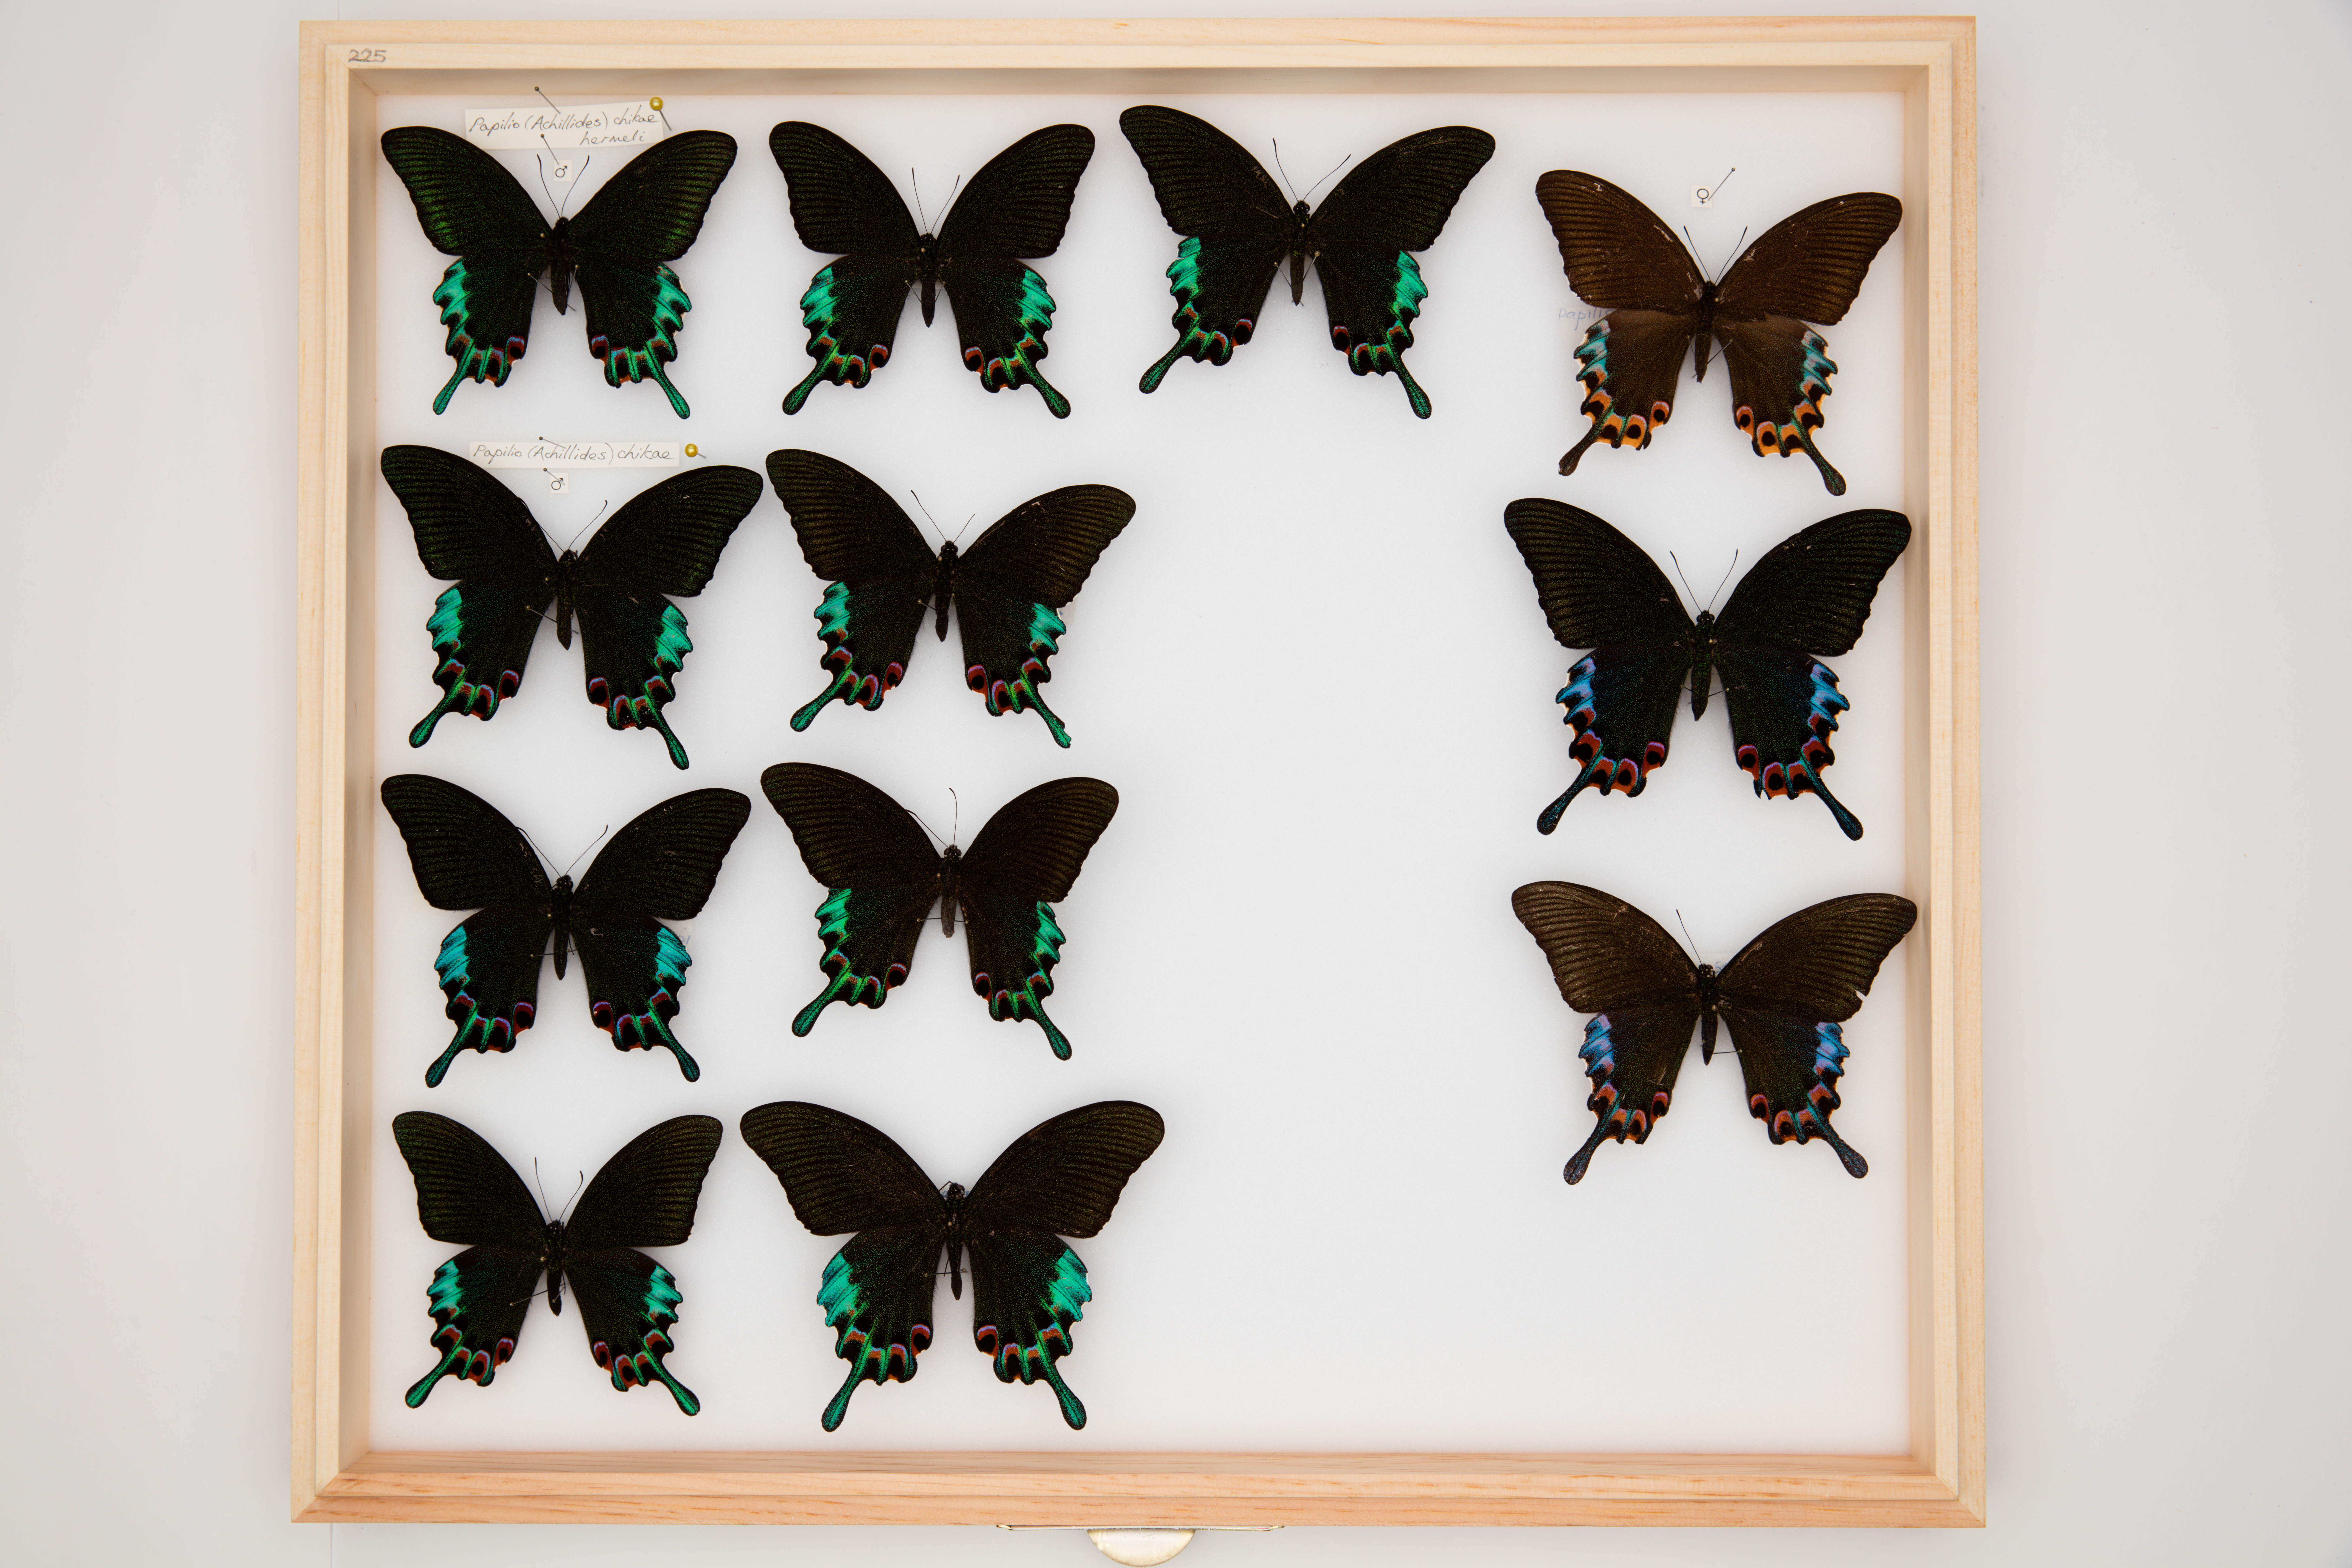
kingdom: Animalia
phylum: Arthropoda
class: Insecta
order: Lepidoptera
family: Papilionidae
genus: Papilio
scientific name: Papilio chikae
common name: Luzon peacock swallowtail
